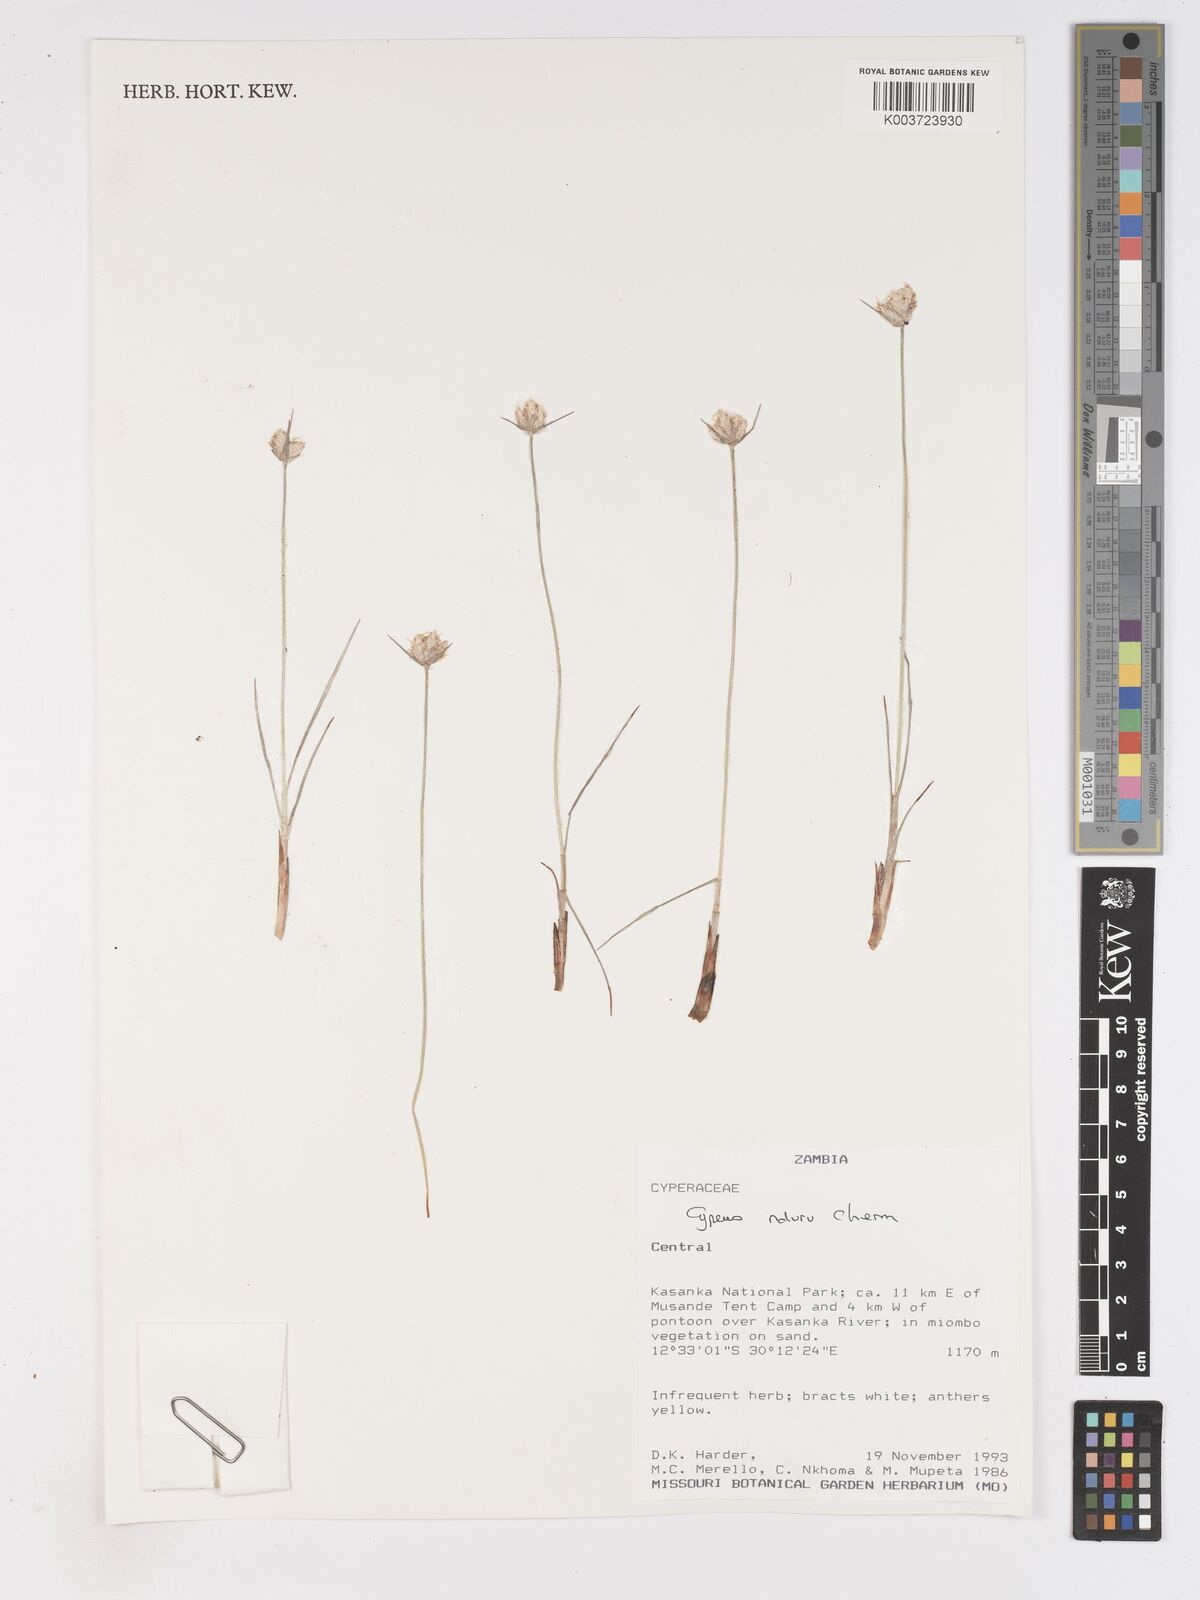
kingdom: Plantae
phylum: Tracheophyta
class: Liliopsida
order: Poales
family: Cyperaceae
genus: Cyperus
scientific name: Cyperus nduru
